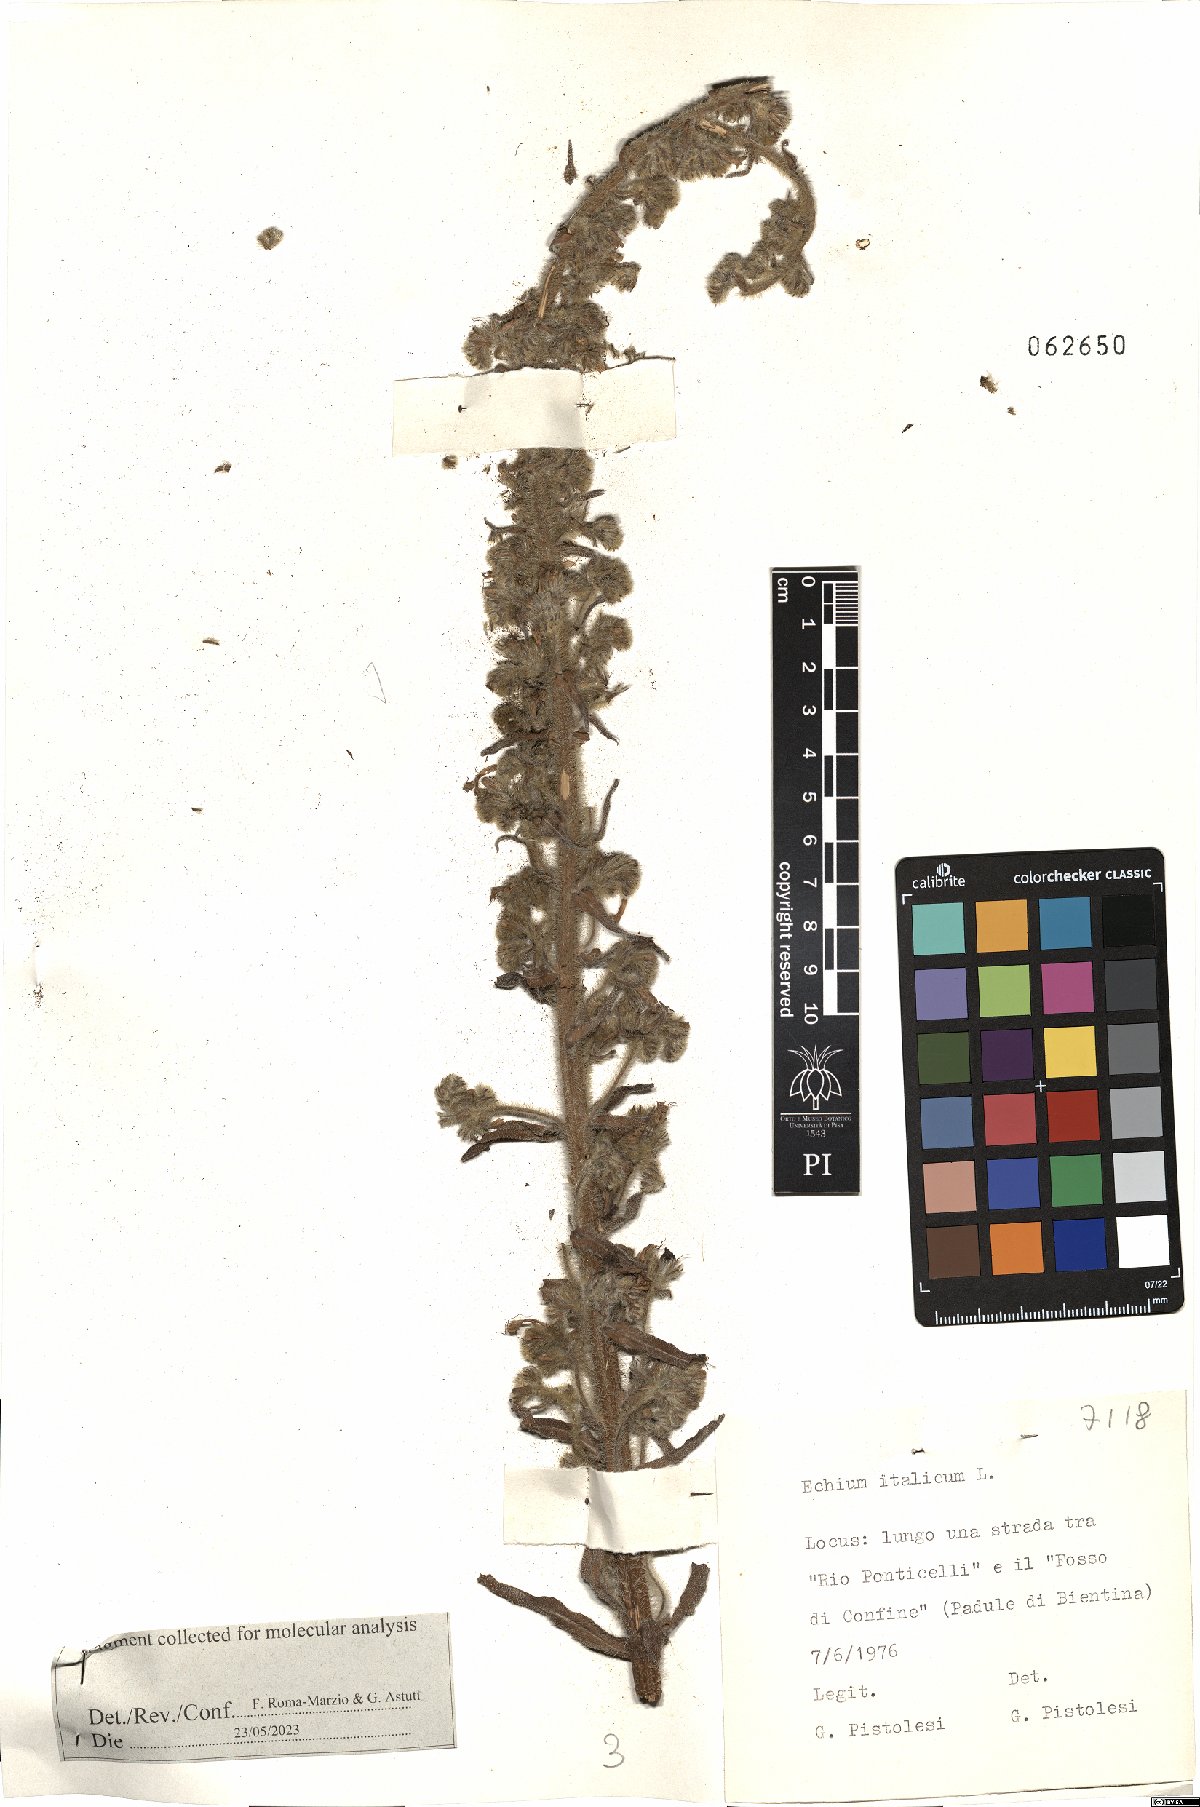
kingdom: Plantae
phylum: Tracheophyta
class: Magnoliopsida
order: Boraginales
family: Boraginaceae
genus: Echium
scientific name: Echium italicum
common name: Italian viper's bugloss
